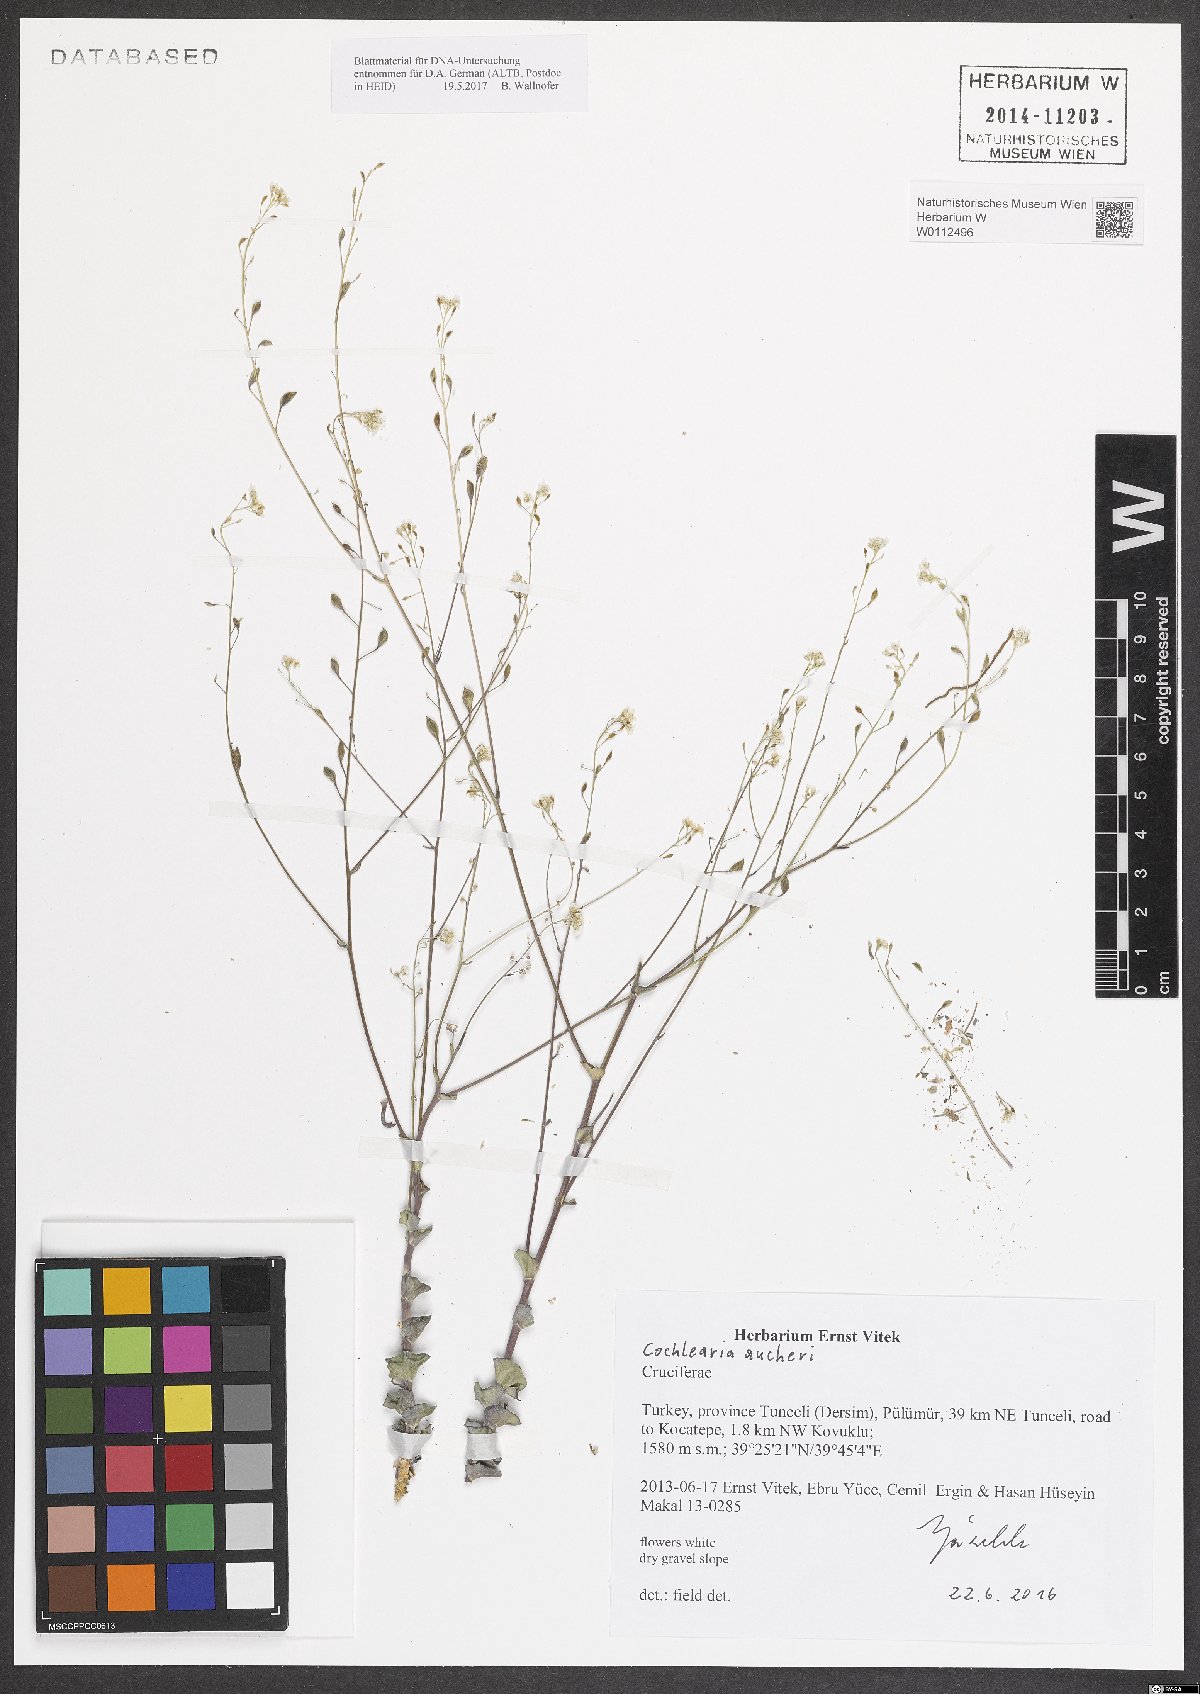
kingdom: Plantae
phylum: Tracheophyta
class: Magnoliopsida
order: Brassicales
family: Brassicaceae
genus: Pseudosempervivum
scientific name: Pseudosempervivum aucheri
